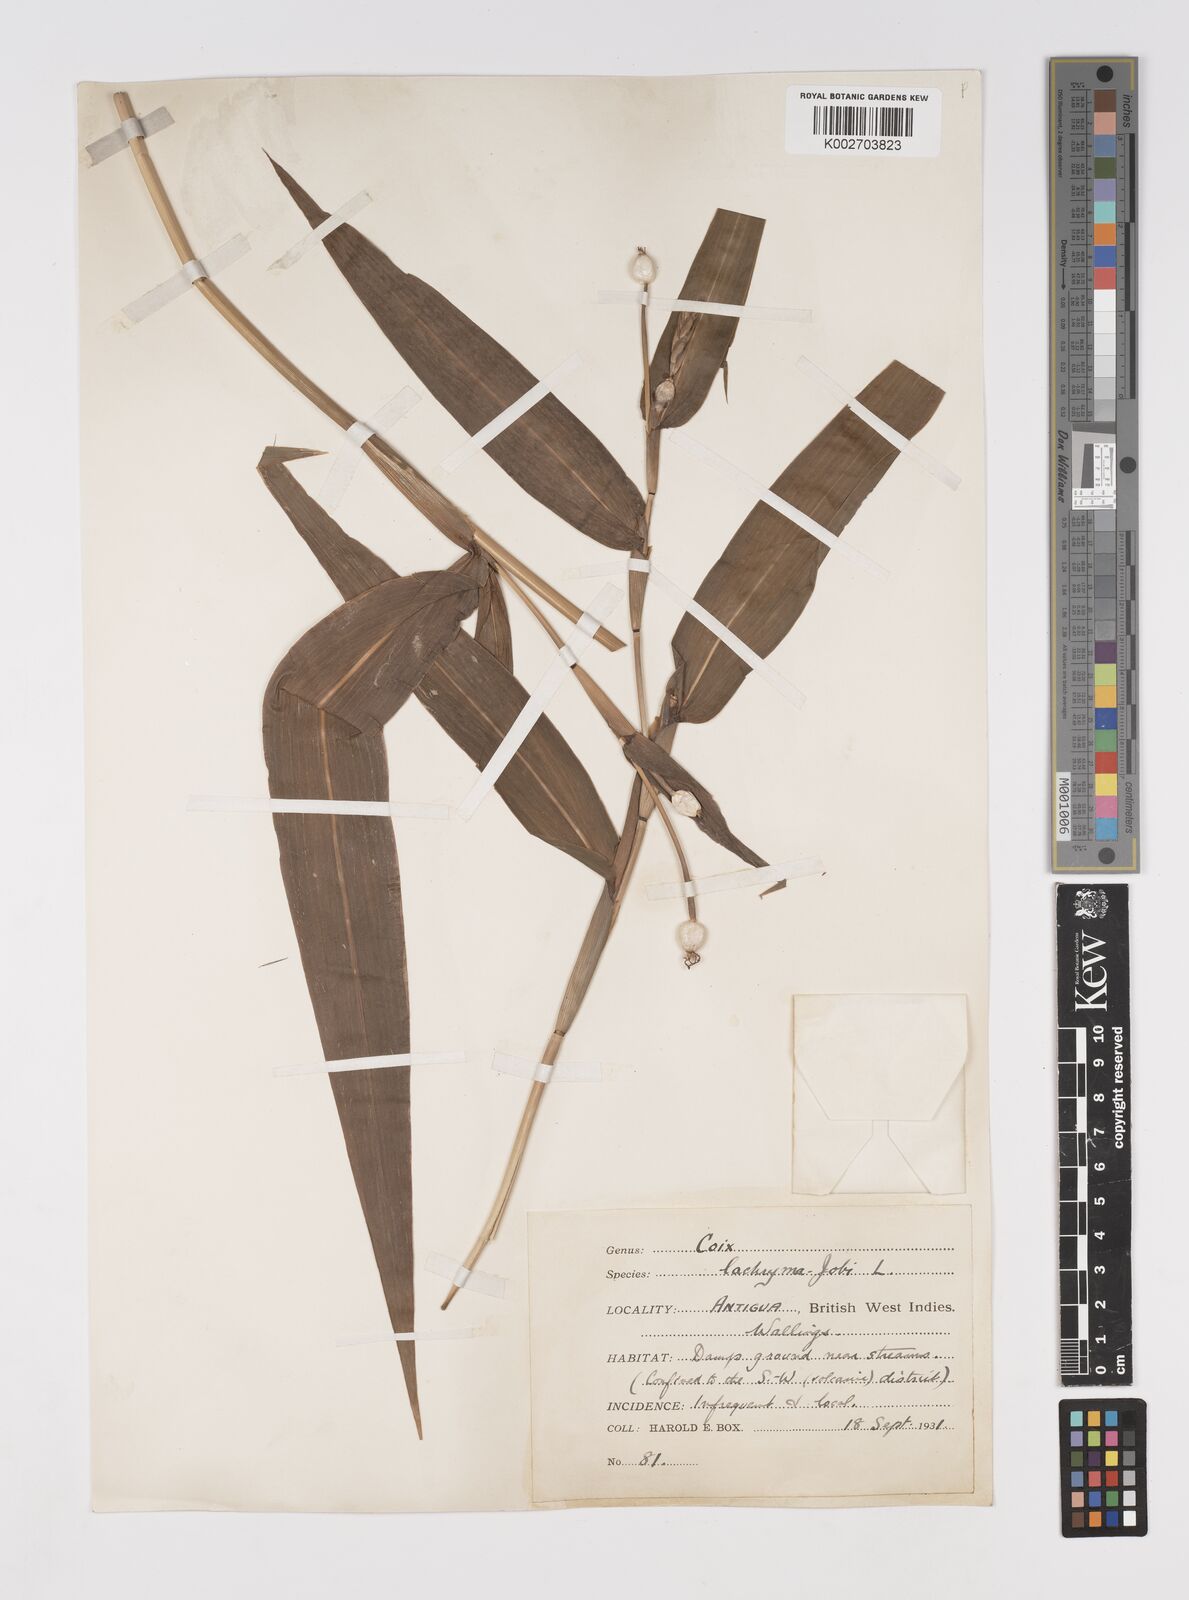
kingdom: Plantae
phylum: Tracheophyta
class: Liliopsida
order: Poales
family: Poaceae
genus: Coix
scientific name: Coix lacryma-jobi
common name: Job's tears
